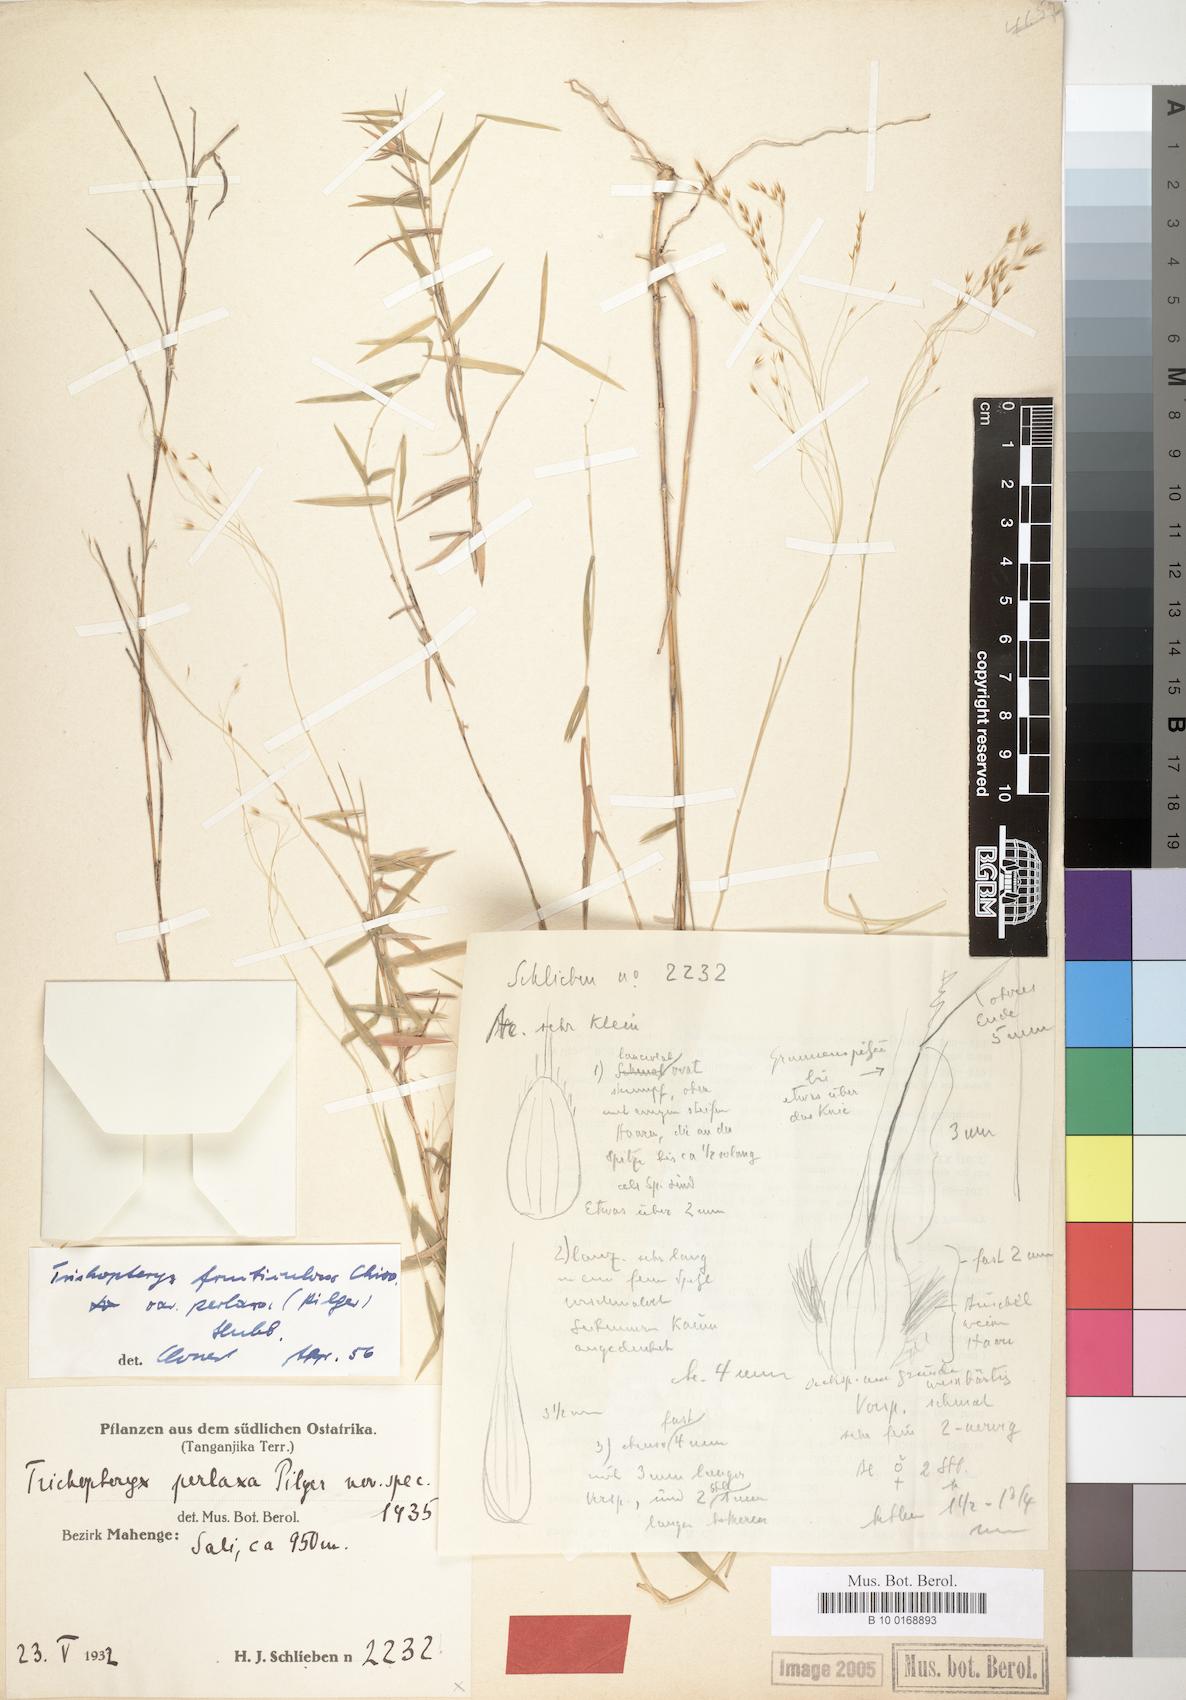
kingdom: Plantae
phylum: Tracheophyta
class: Liliopsida
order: Poales
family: Poaceae
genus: Trichopteryx
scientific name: Trichopteryx fruticulosa
